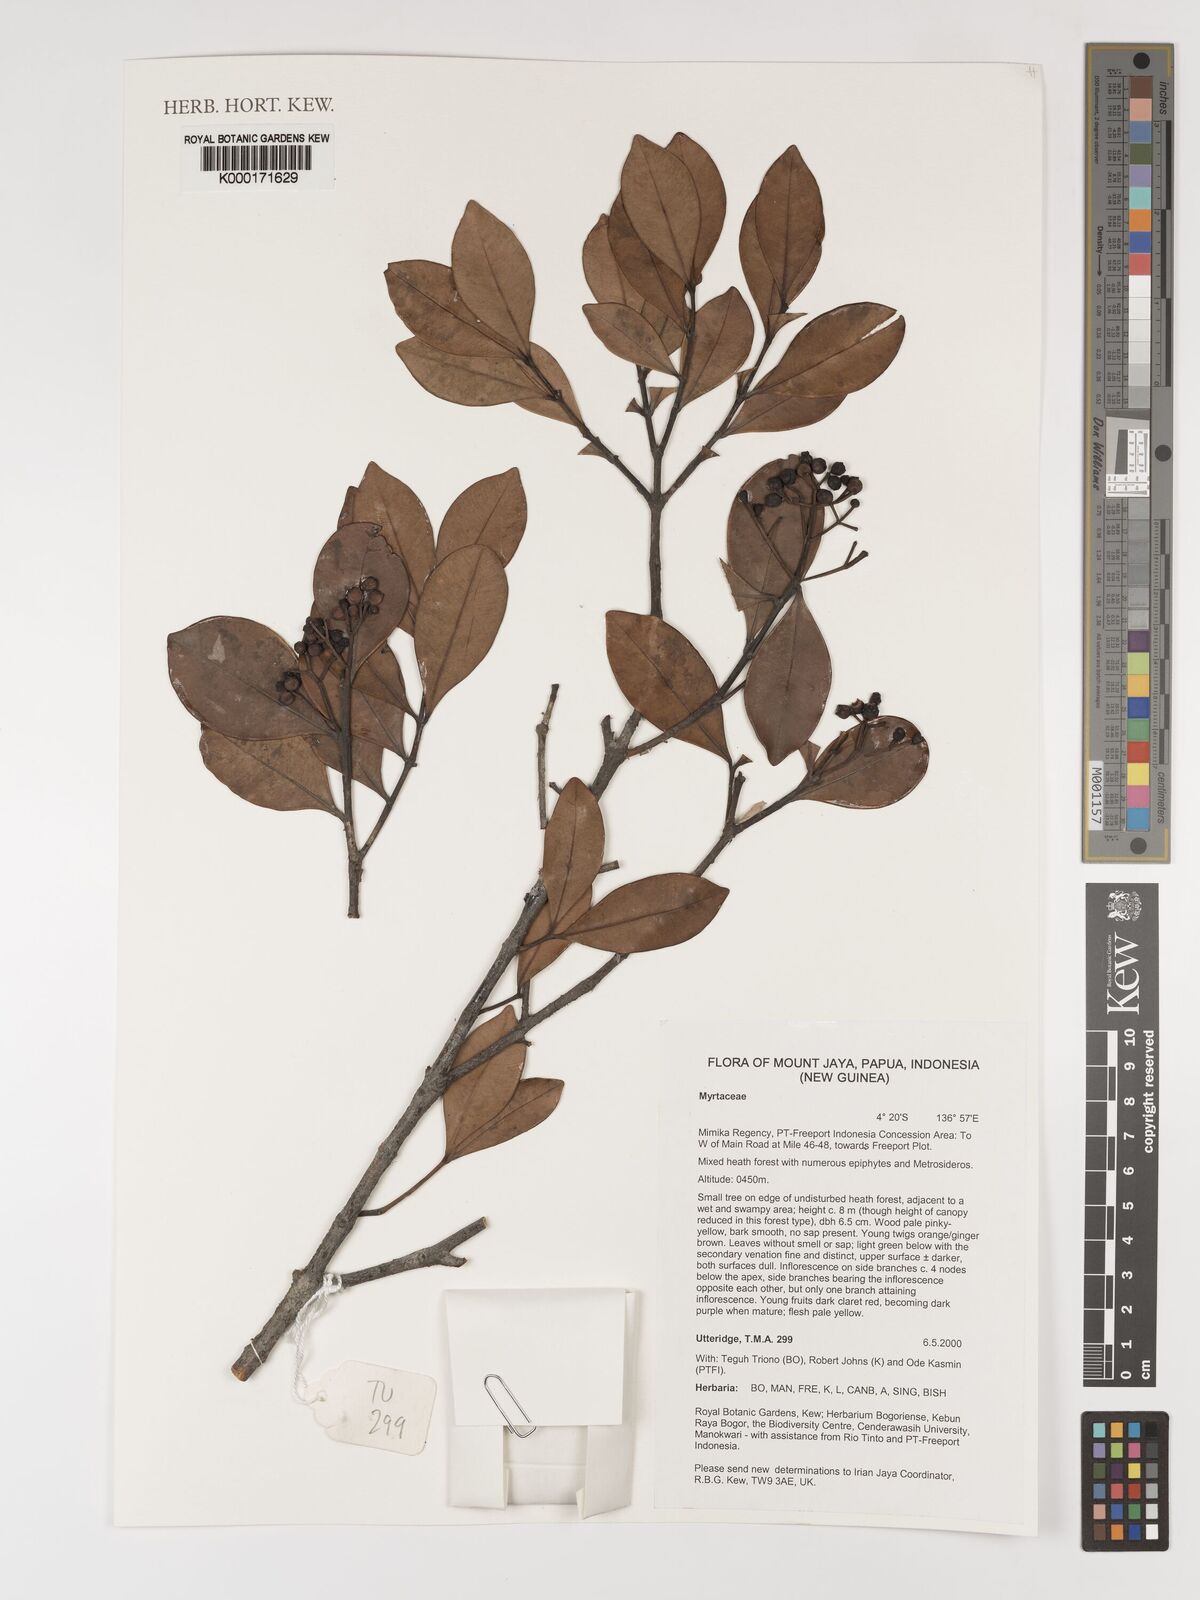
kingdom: Plantae
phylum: Tracheophyta
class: Magnoliopsida
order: Myrtales
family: Myrtaceae
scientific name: Myrtaceae
